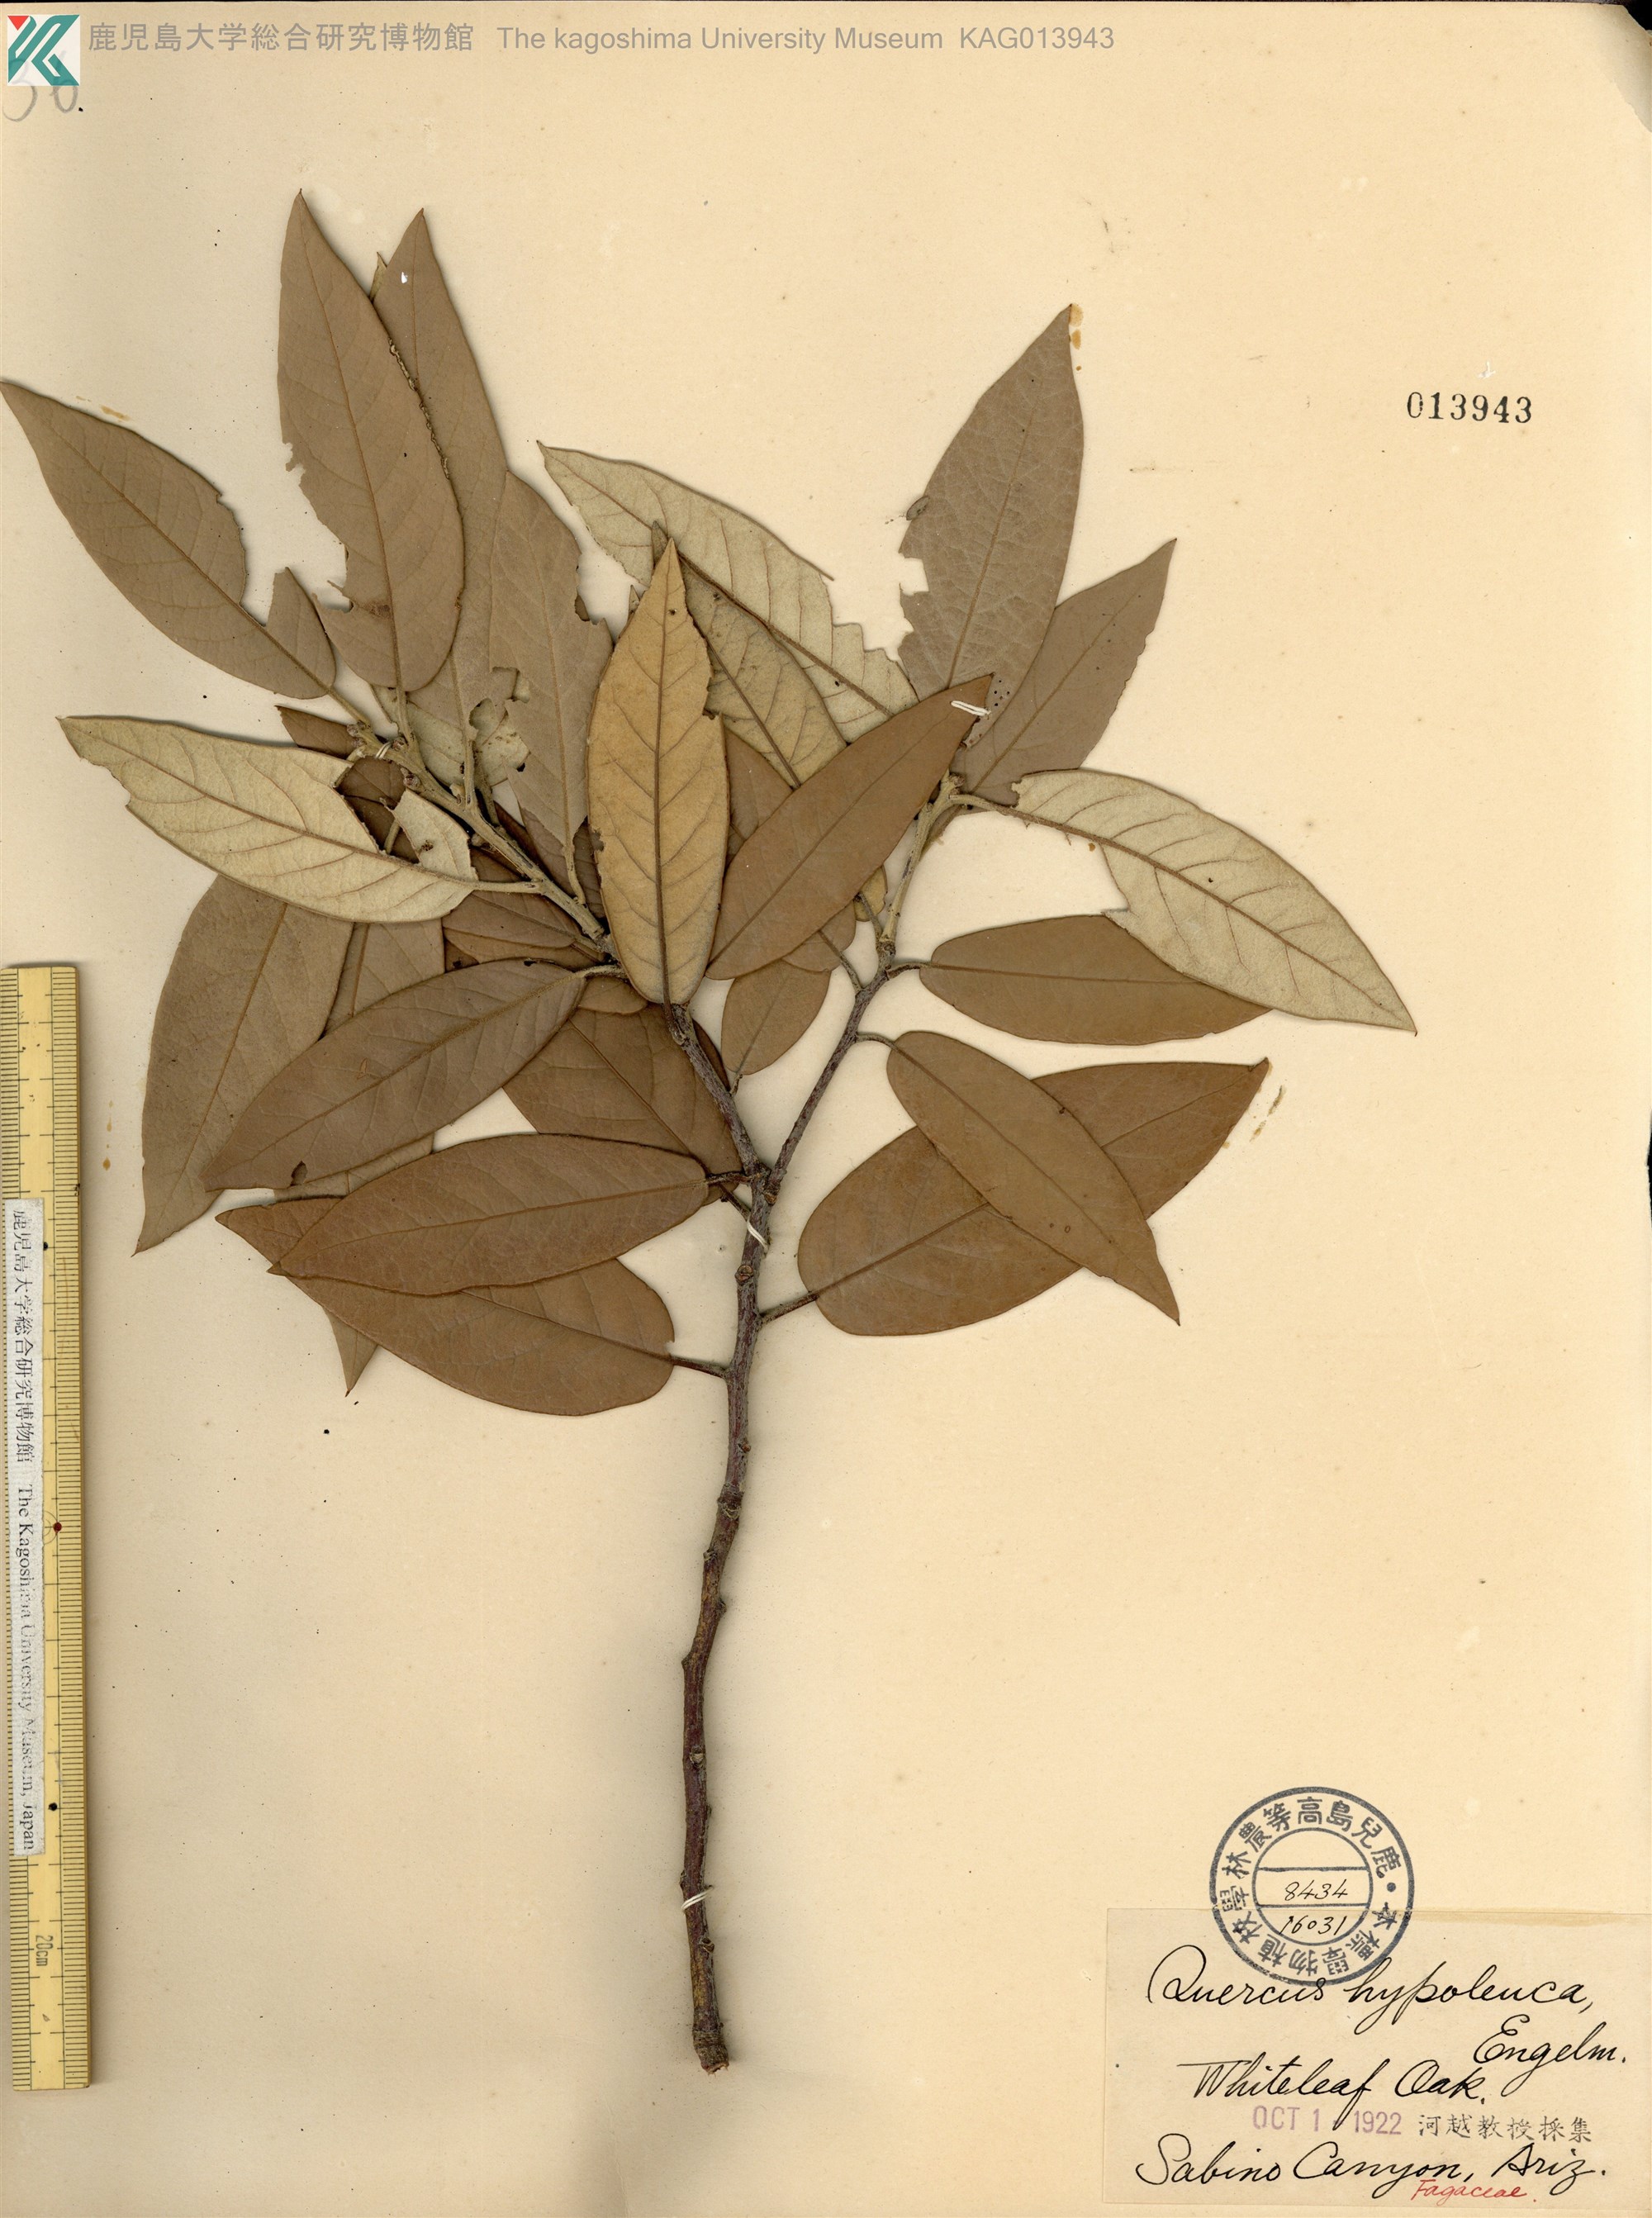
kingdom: Plantae
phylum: Tracheophyta
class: Magnoliopsida
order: Fagales
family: Fagaceae
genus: Quercus
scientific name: Quercus hypoleucoides
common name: Silverleaf oak
